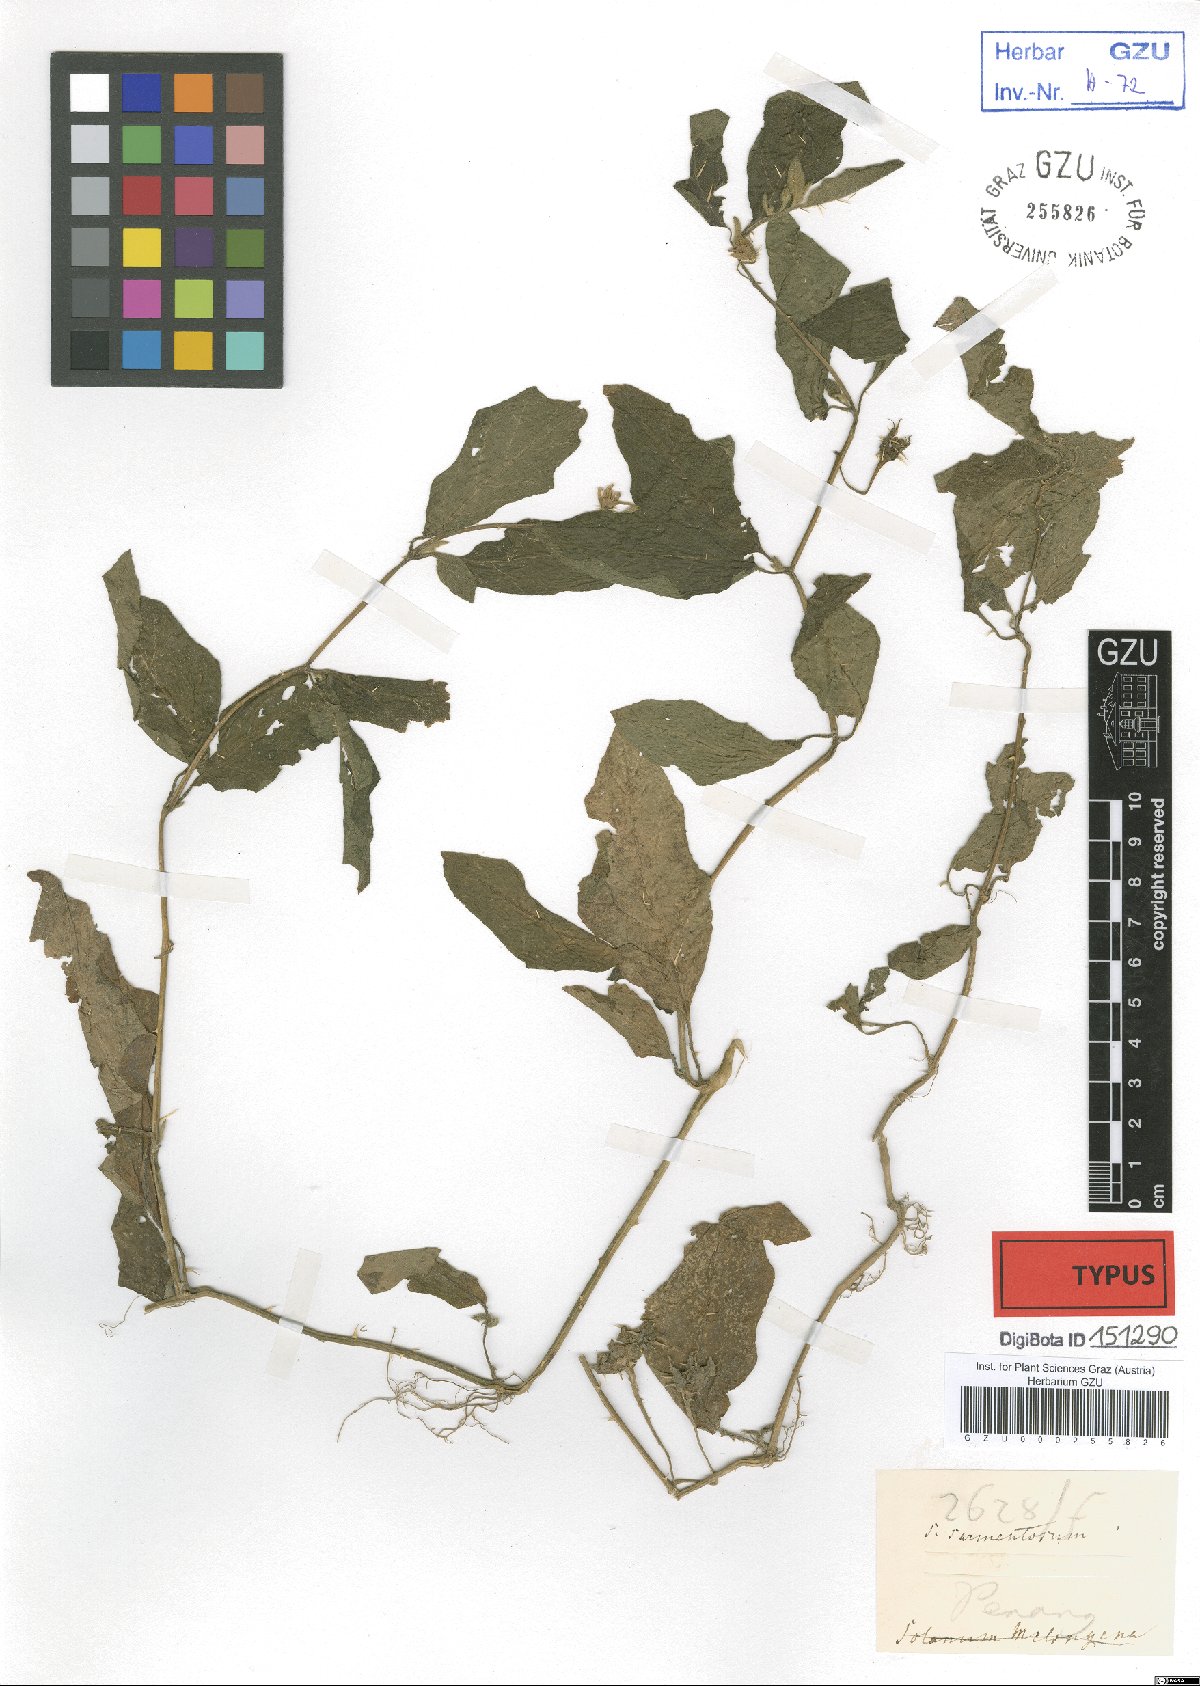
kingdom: Plantae
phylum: Tracheophyta
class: Magnoliopsida
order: Solanales
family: Solanaceae
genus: Solanum
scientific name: Solanum
